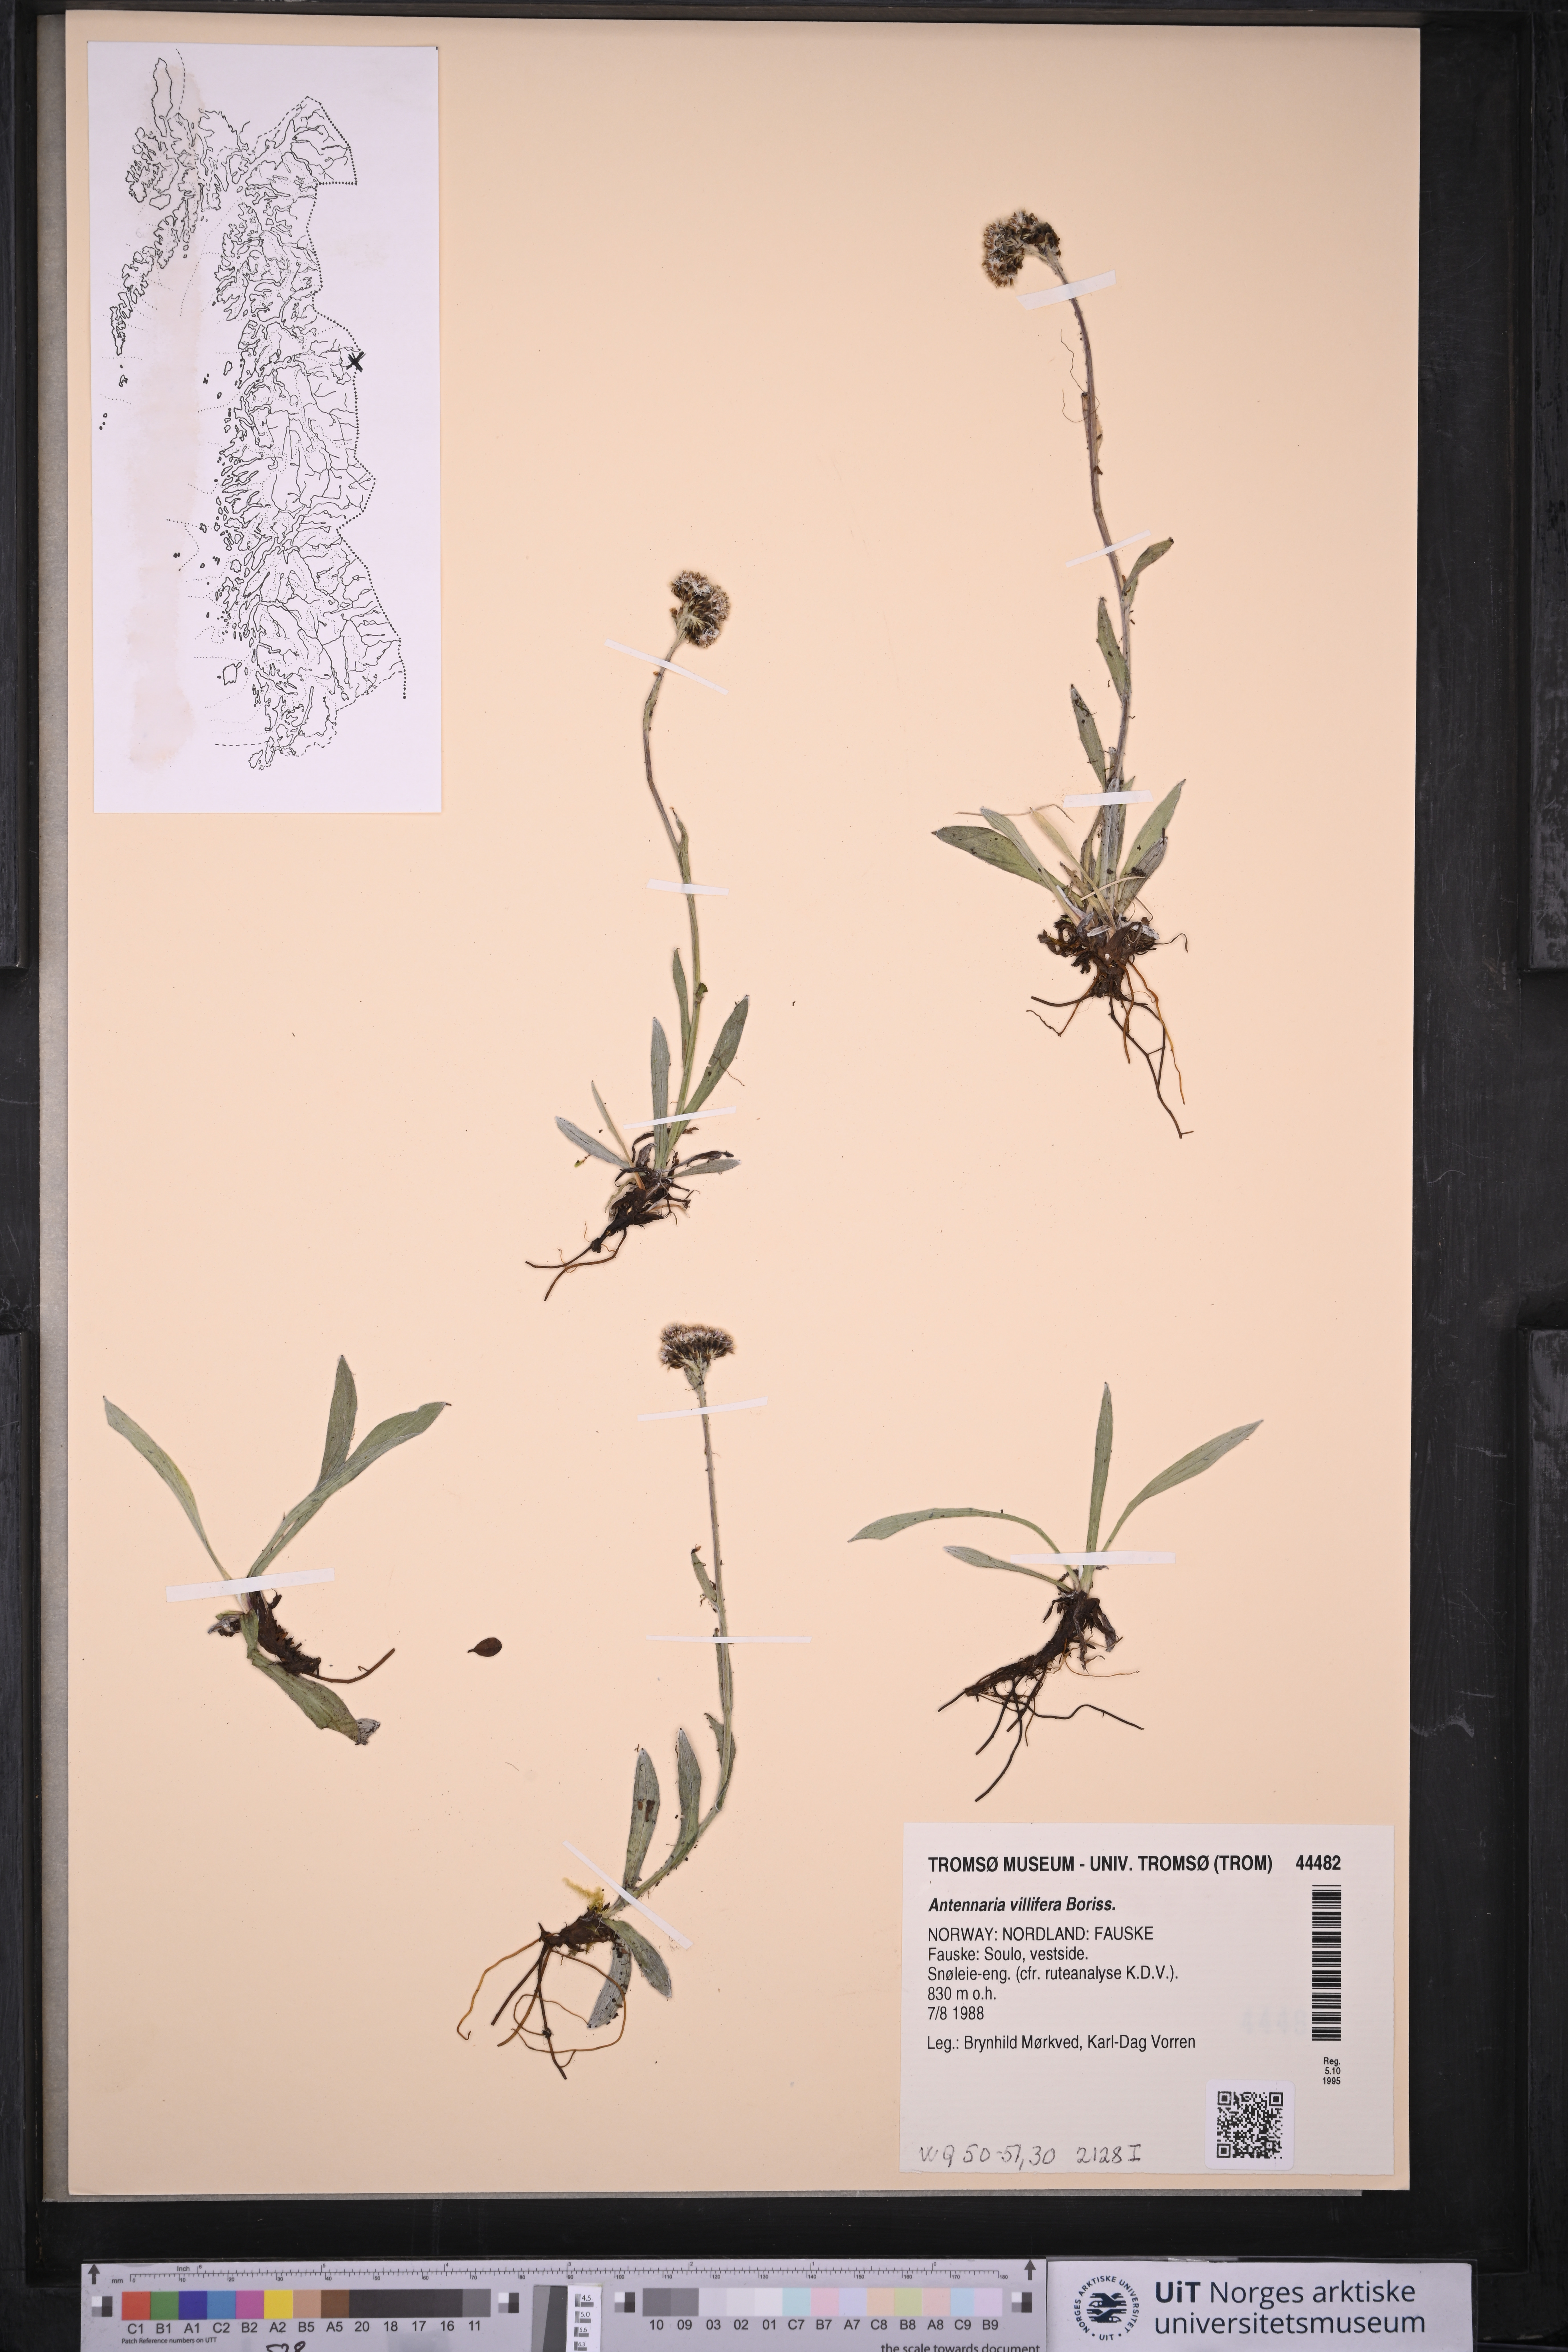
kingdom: Plantae
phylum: Tracheophyta
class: Magnoliopsida
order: Asterales
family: Asteraceae
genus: Antennaria
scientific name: Antennaria lanata
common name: Woolly pussytoes
